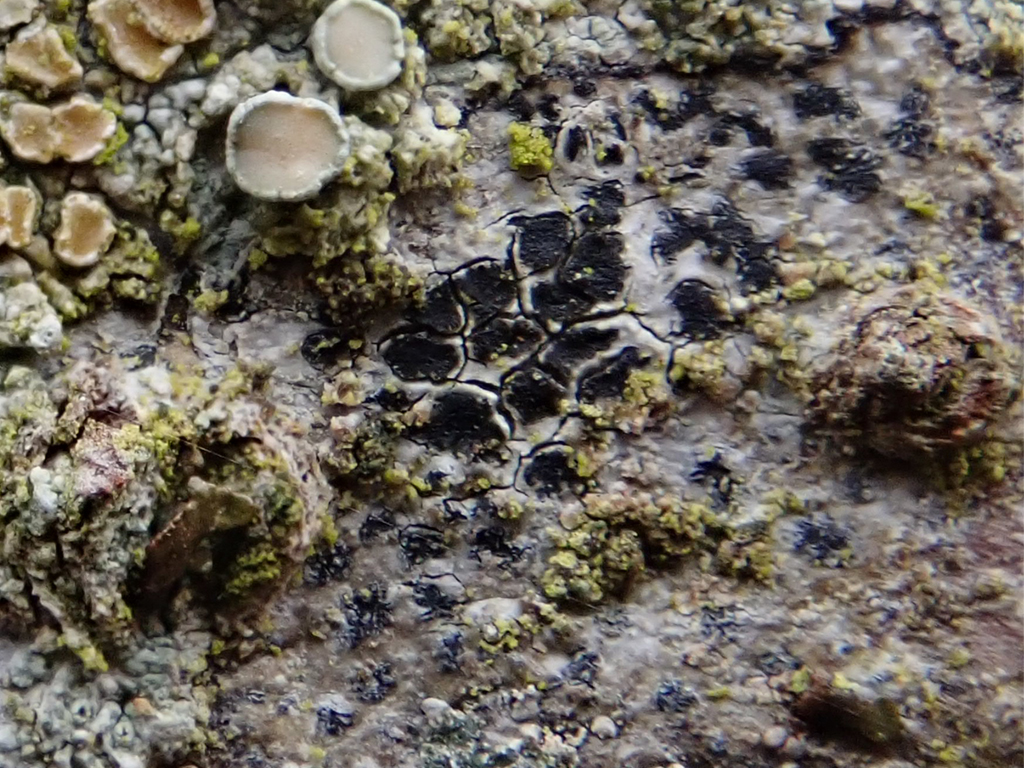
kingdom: Fungi
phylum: Ascomycota
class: Arthoniomycetes
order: Arthoniales
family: Arthoniaceae
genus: Arthonia
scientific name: Arthonia radiata
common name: stjerne-pletlav
